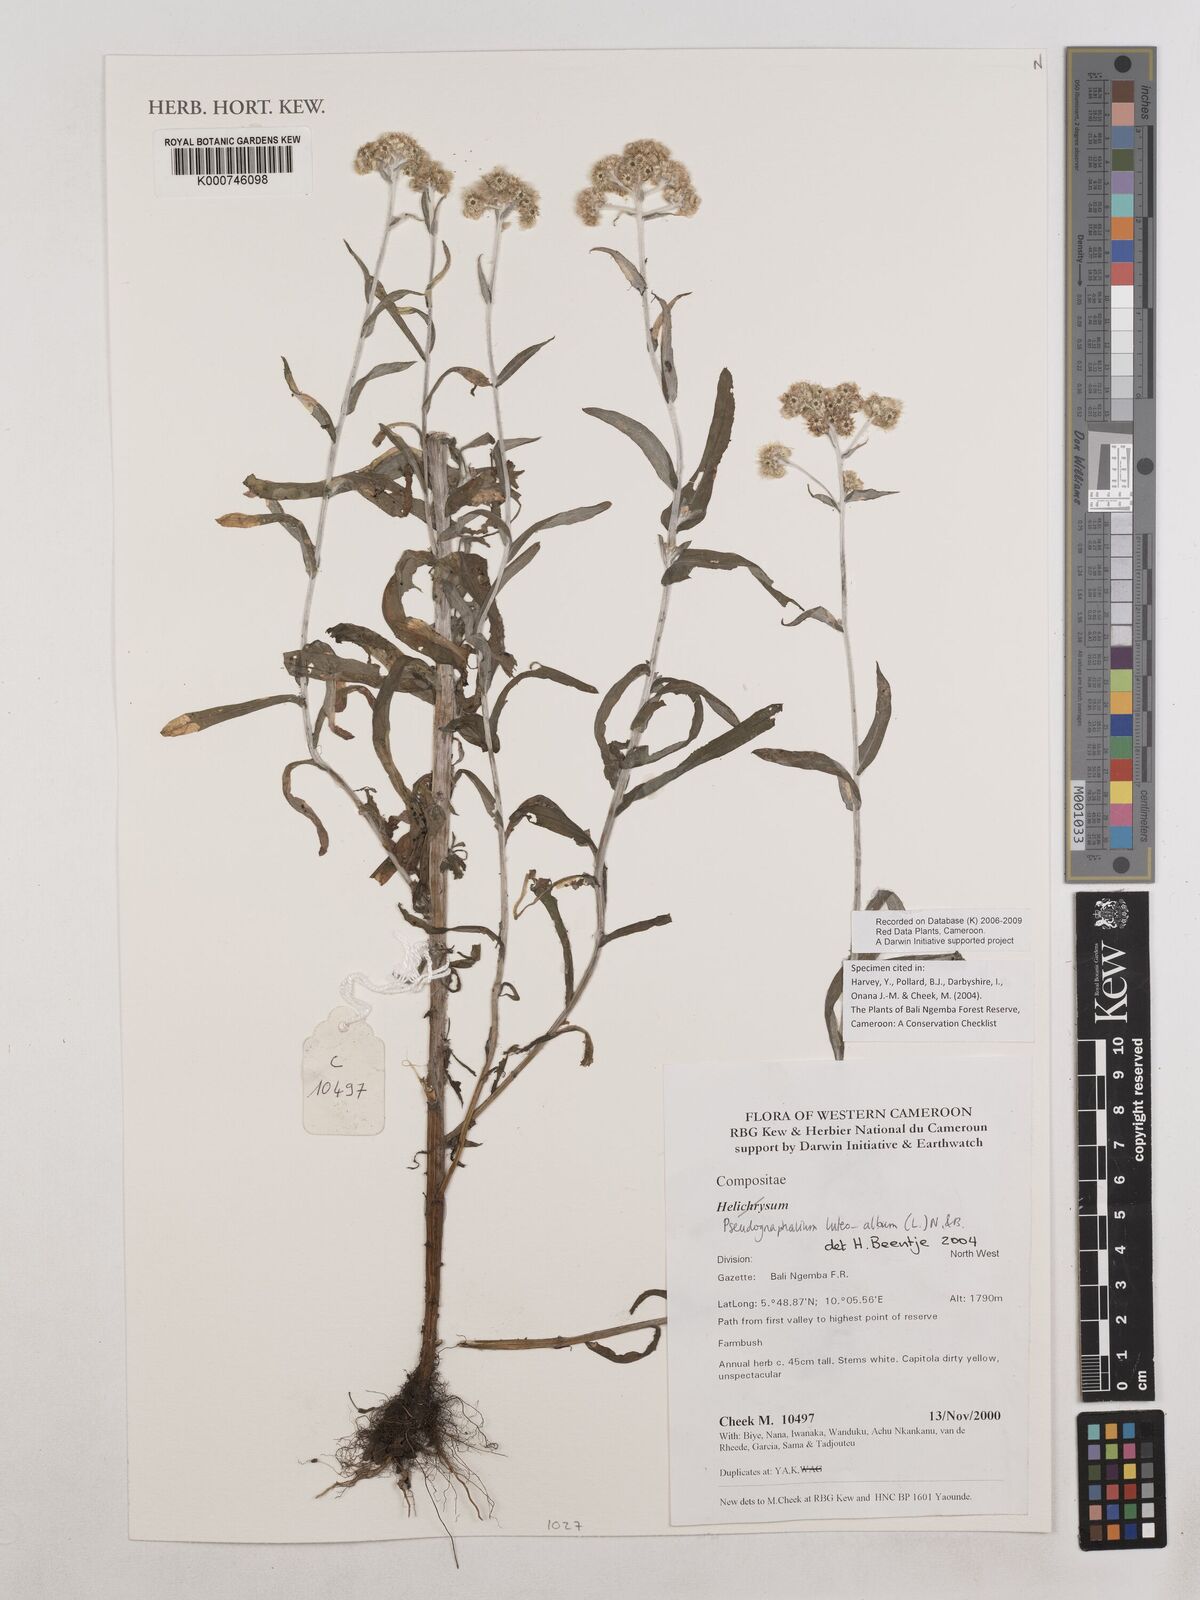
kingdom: Plantae
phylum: Tracheophyta
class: Magnoliopsida
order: Asterales
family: Asteraceae
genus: Helichrysum
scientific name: Helichrysum luteoalbum
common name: Daisy
